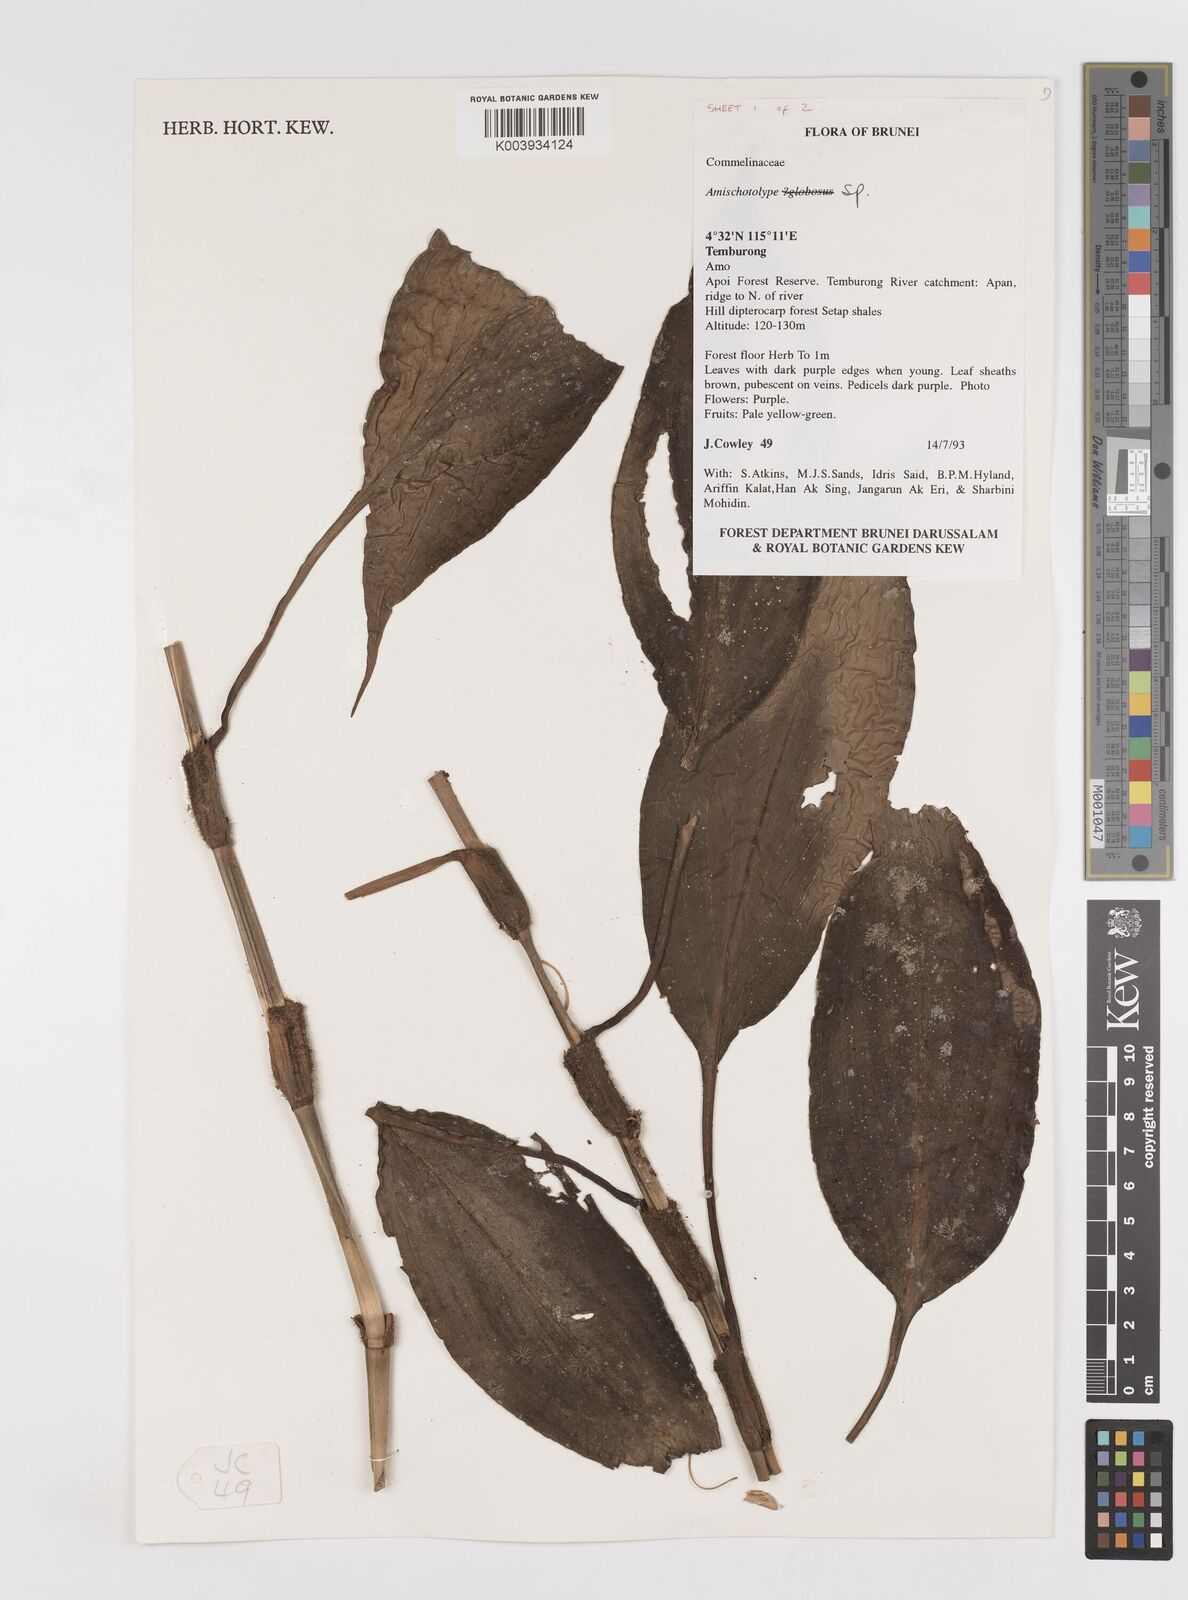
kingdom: Plantae
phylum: Tracheophyta
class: Liliopsida
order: Commelinales
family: Commelinaceae
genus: Amischotolype
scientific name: Amischotolype
